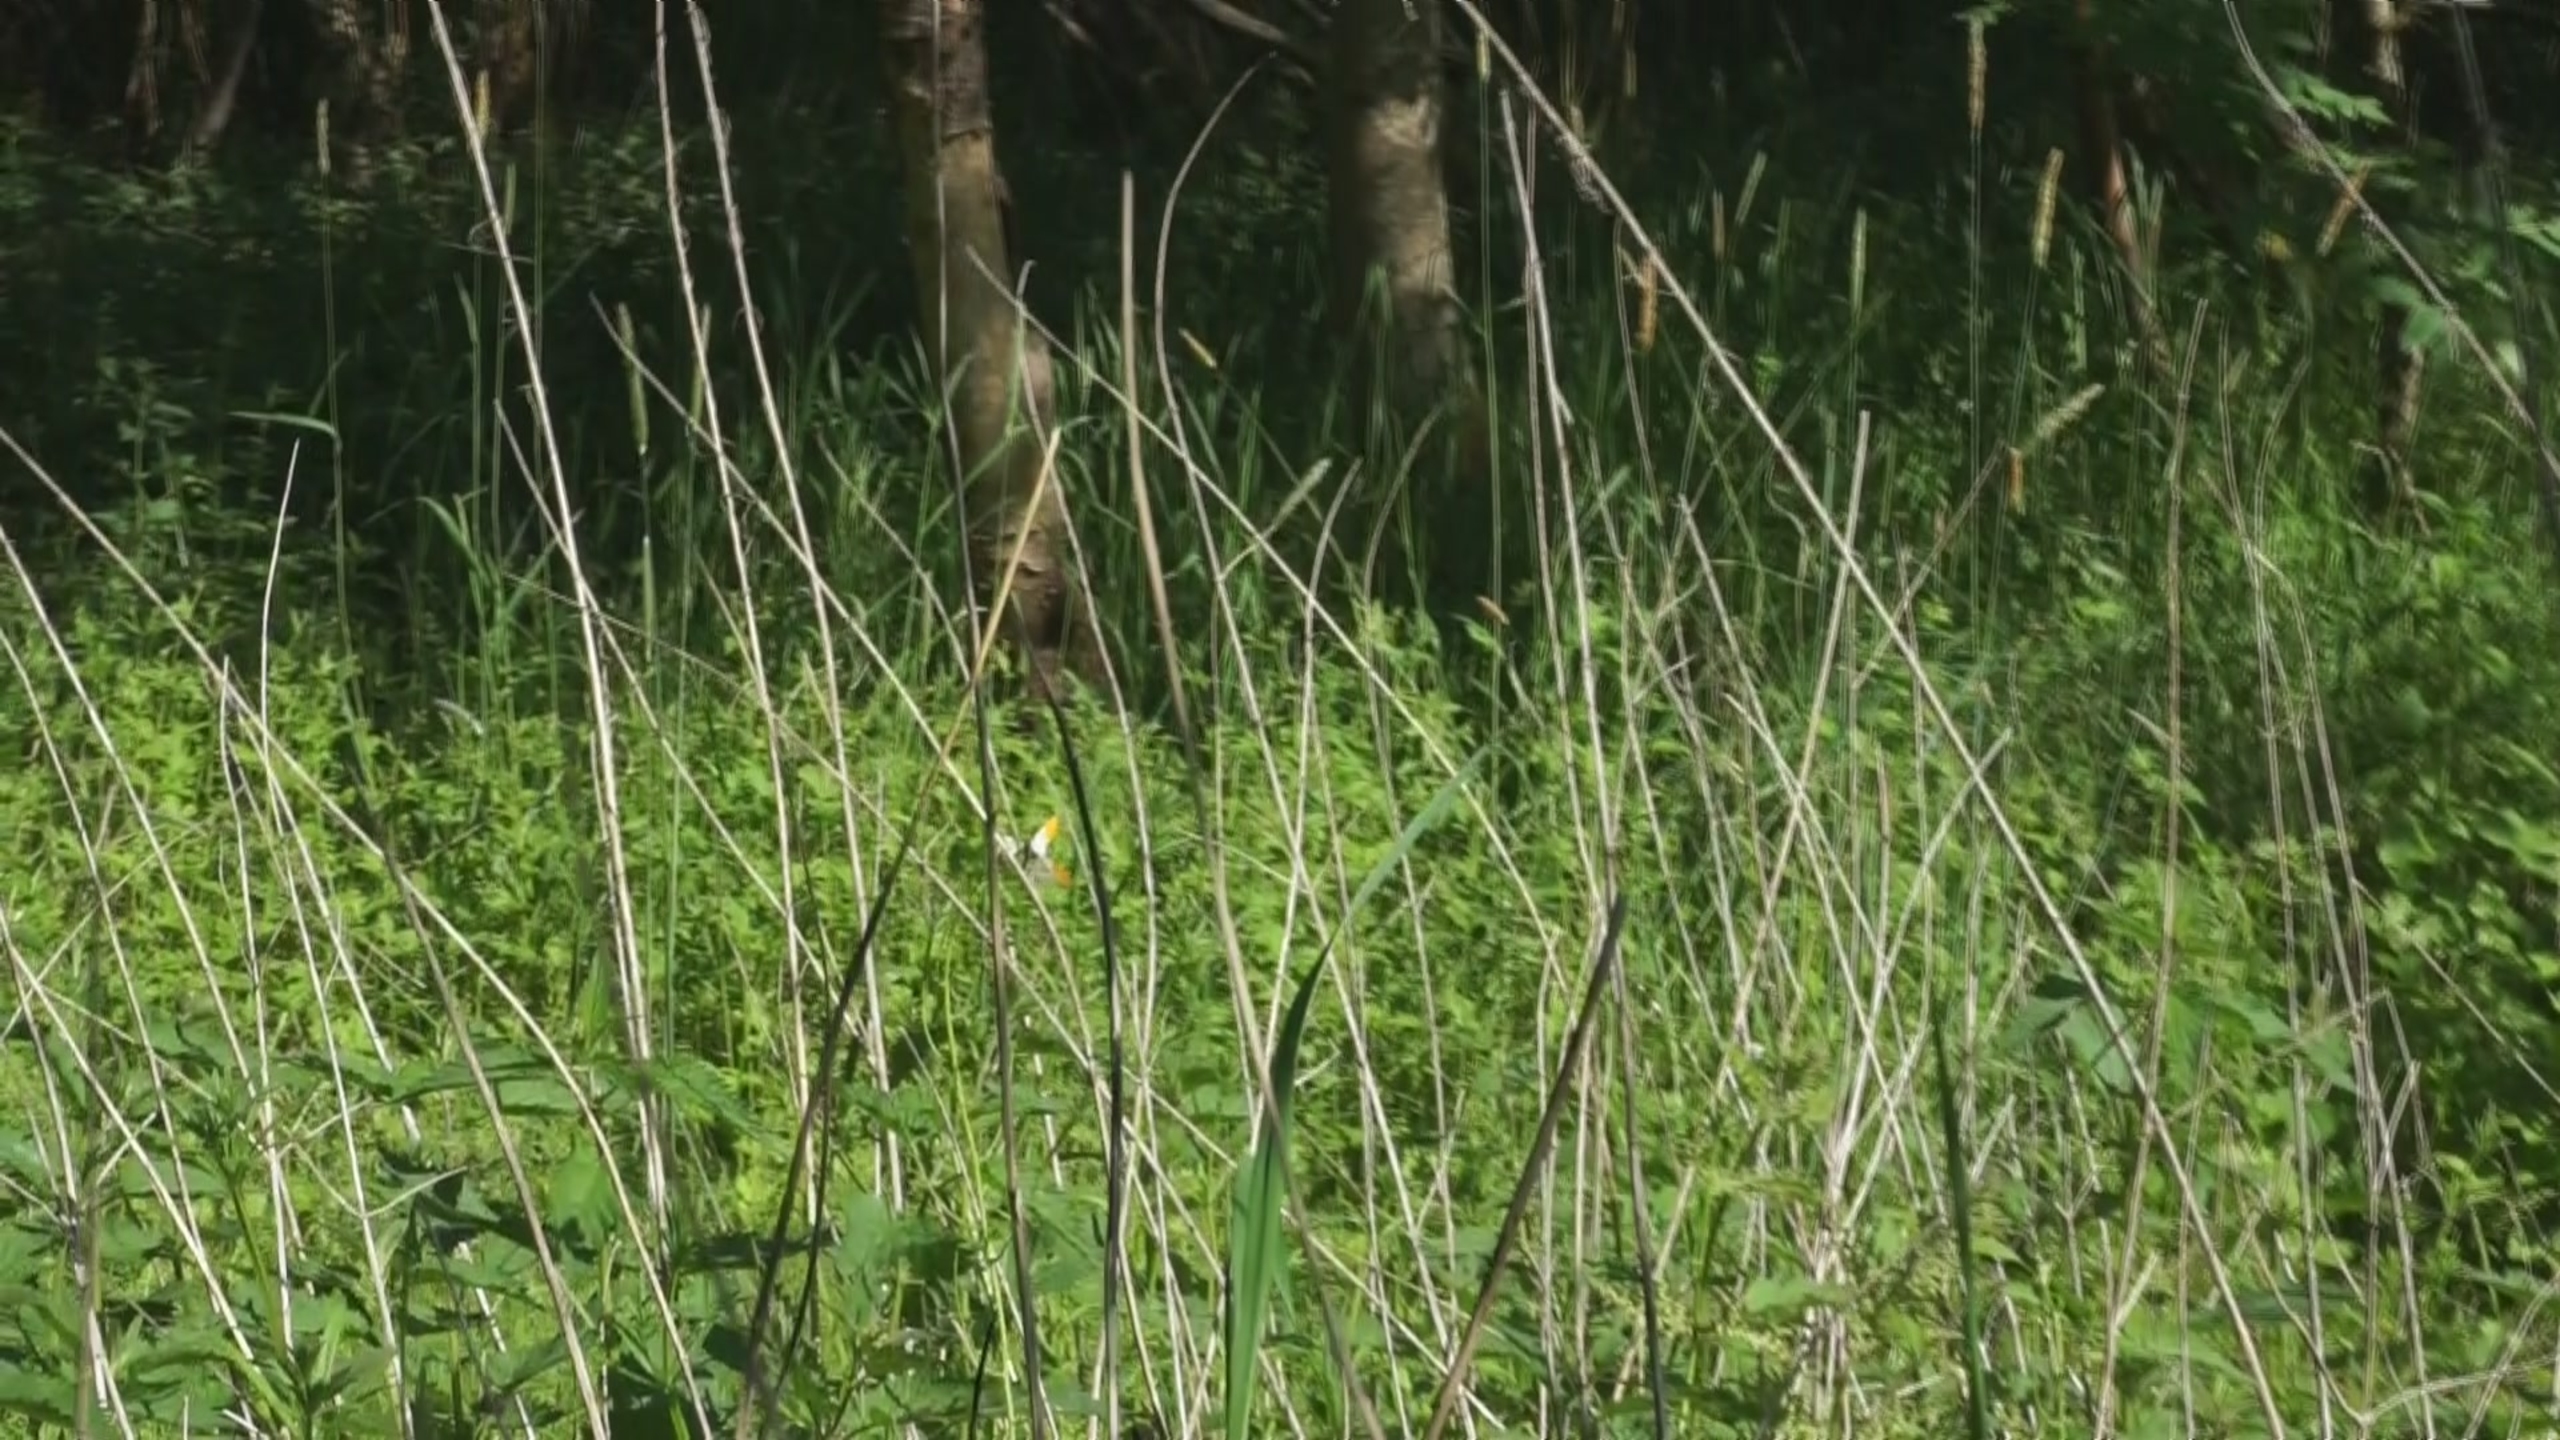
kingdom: Animalia
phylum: Arthropoda
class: Insecta
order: Lepidoptera
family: Pieridae
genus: Anthocharis
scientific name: Anthocharis cardamines
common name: Aurora
